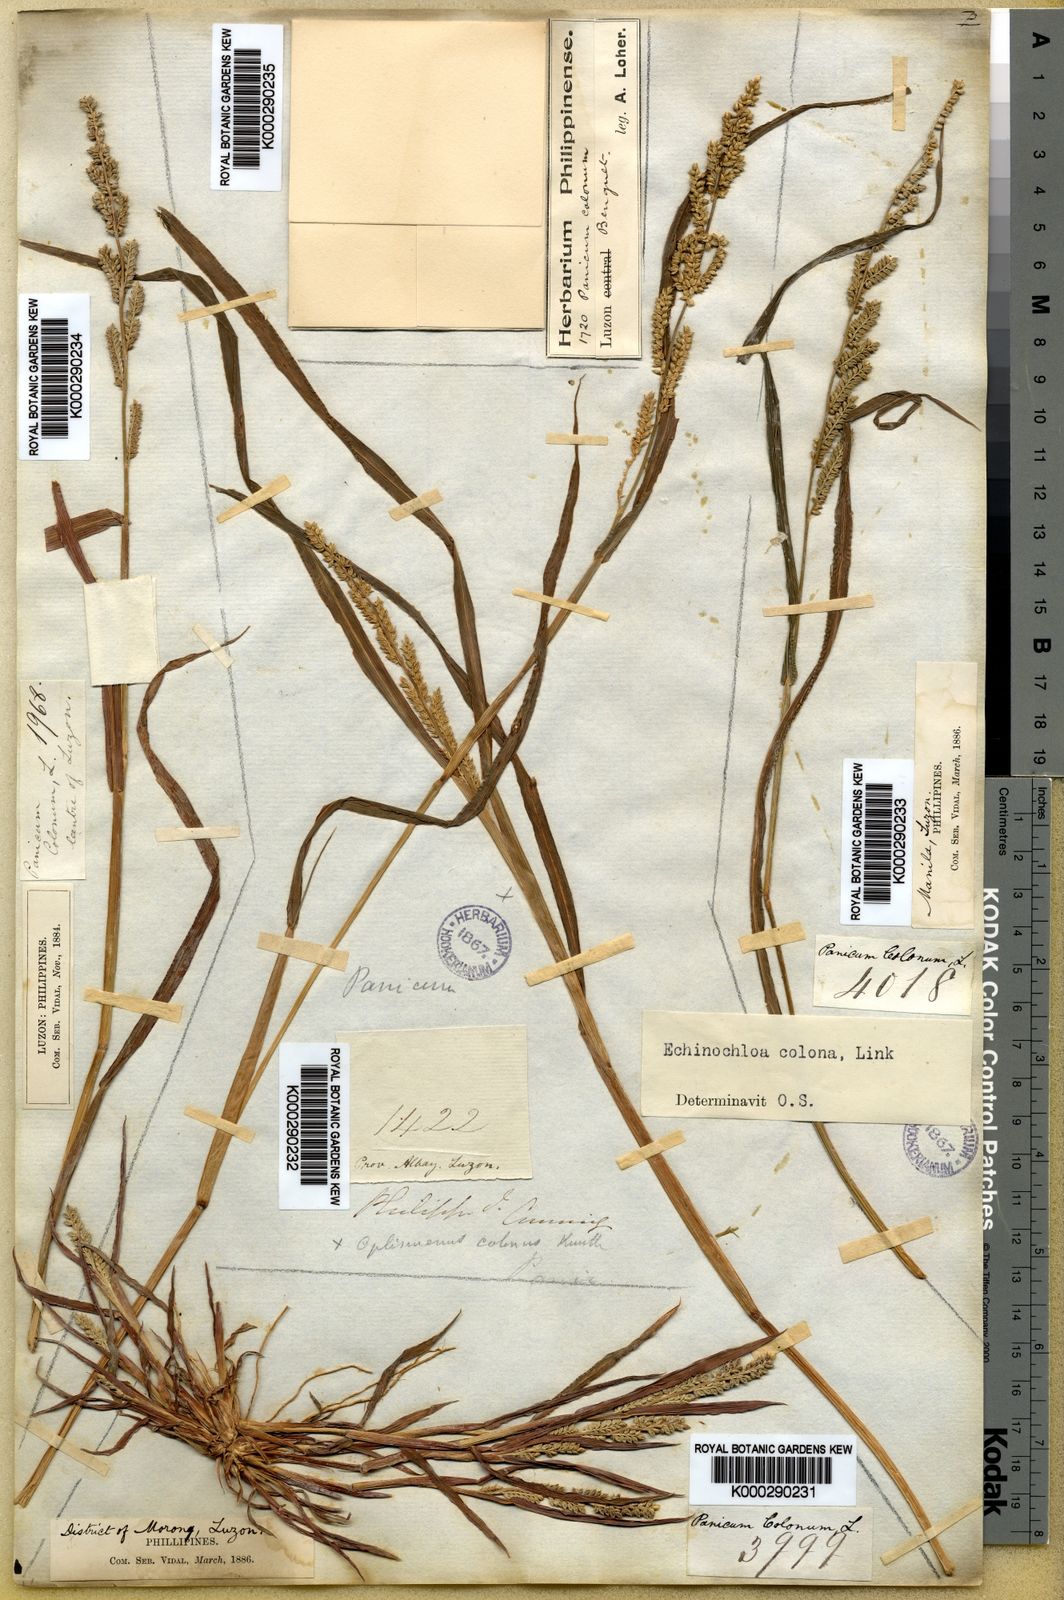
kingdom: Plantae
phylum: Tracheophyta
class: Liliopsida
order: Poales
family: Poaceae
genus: Echinochloa
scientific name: Echinochloa colonum
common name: Jungle rice
